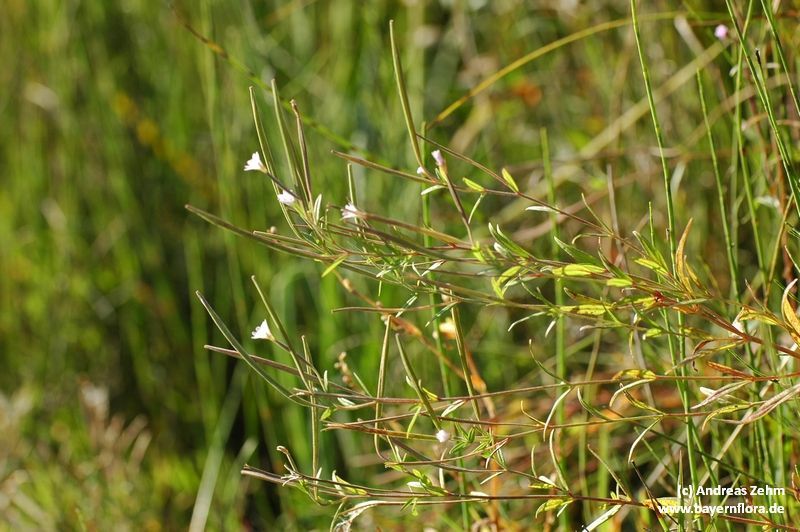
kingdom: Plantae
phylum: Tracheophyta
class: Magnoliopsida
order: Myrtales
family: Onagraceae
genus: Epilobium
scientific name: Epilobium palustre
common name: Marsh willowherb
